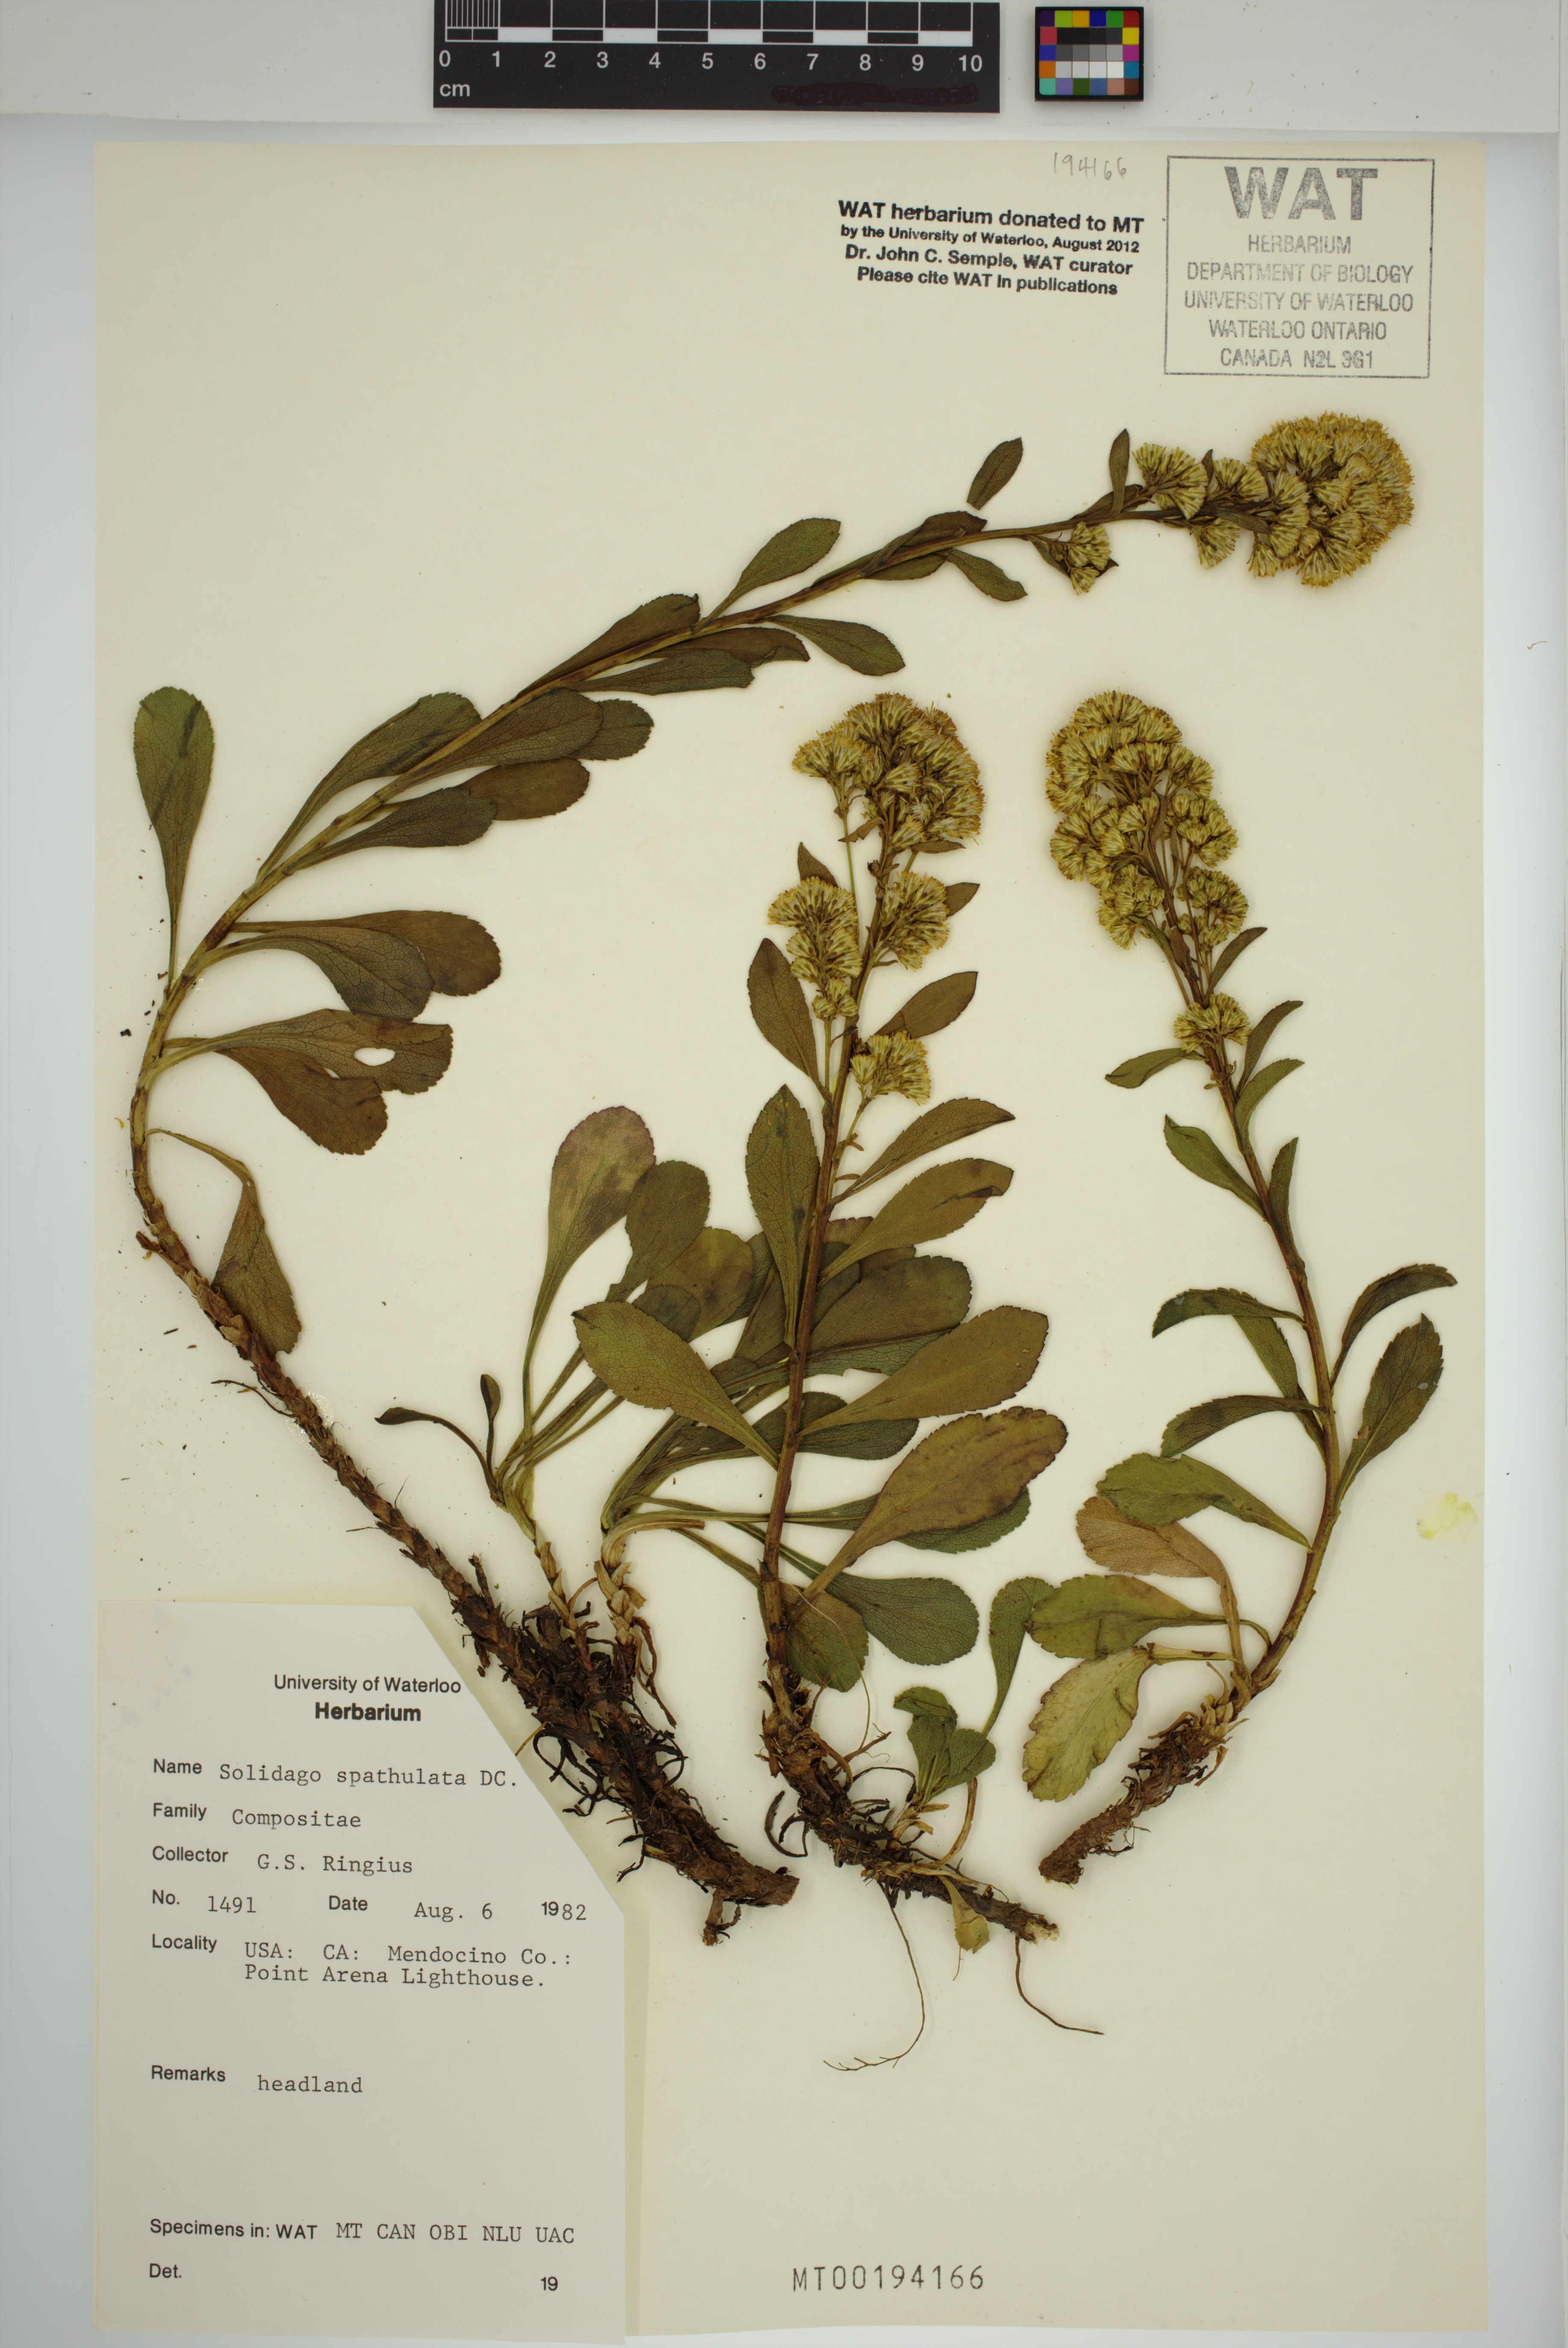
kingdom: Plantae
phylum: Tracheophyta
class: Magnoliopsida
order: Asterales
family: Asteraceae
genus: Solidago
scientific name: Solidago spathulata
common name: Coast goldenrod
